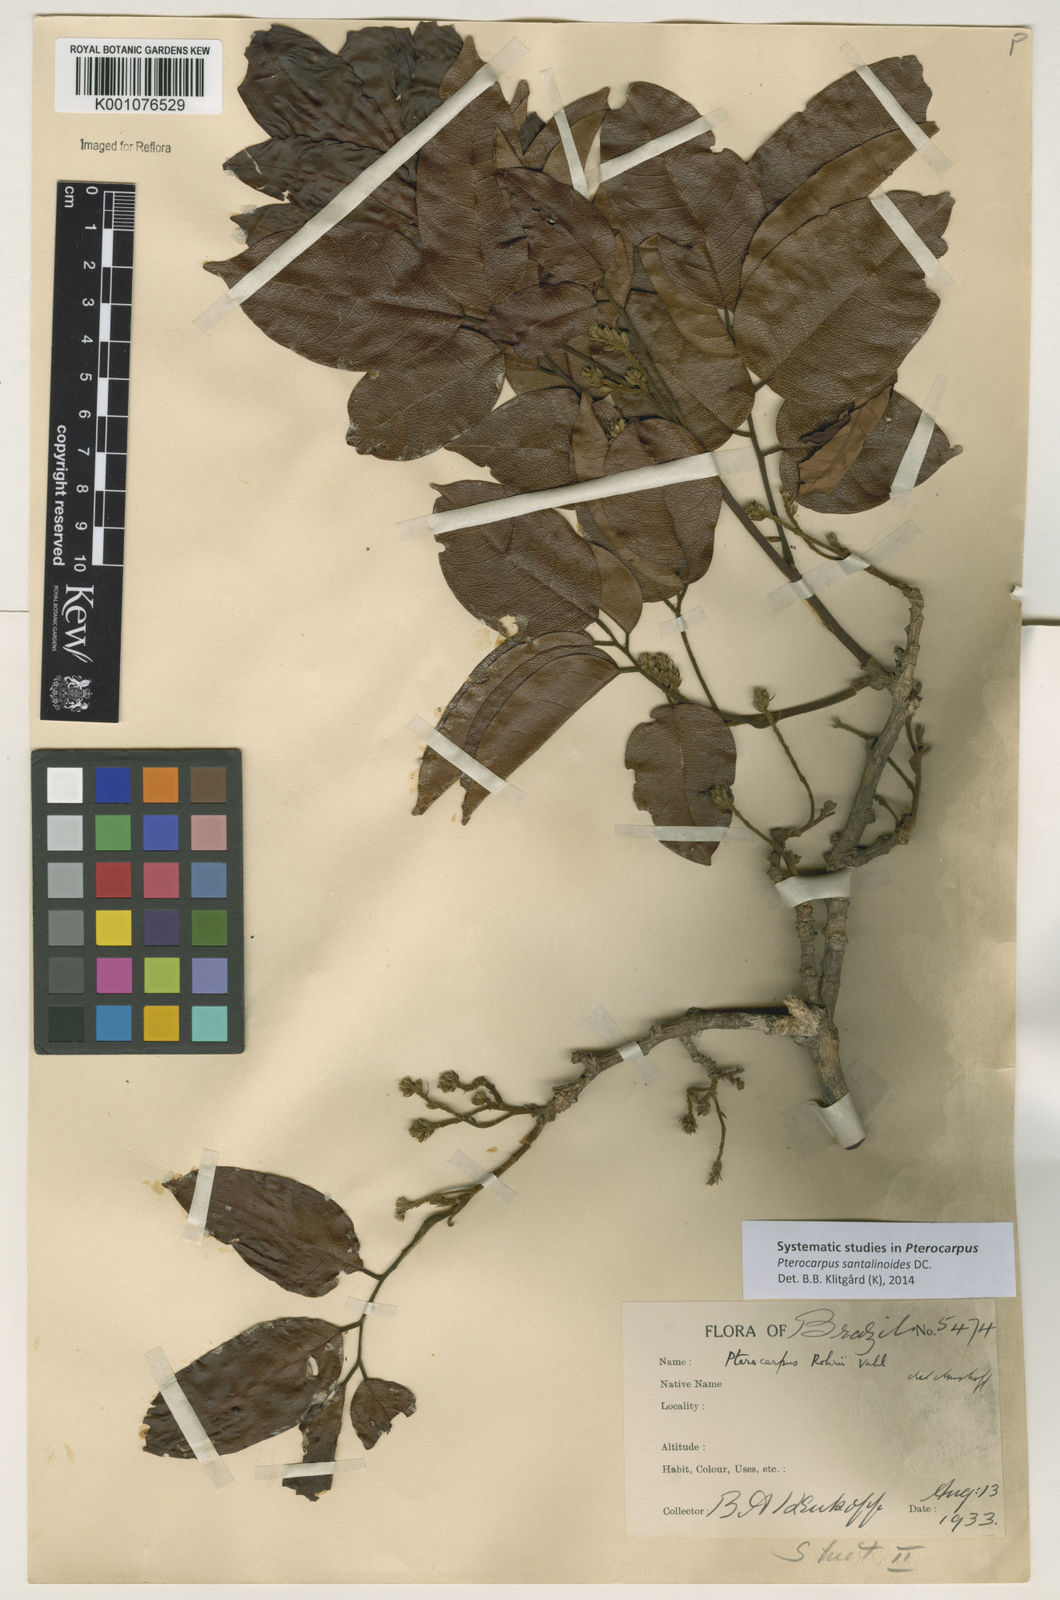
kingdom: Plantae
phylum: Tracheophyta
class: Magnoliopsida
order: Fabales
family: Fabaceae
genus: Pterocarpus
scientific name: Pterocarpus santalinoides
